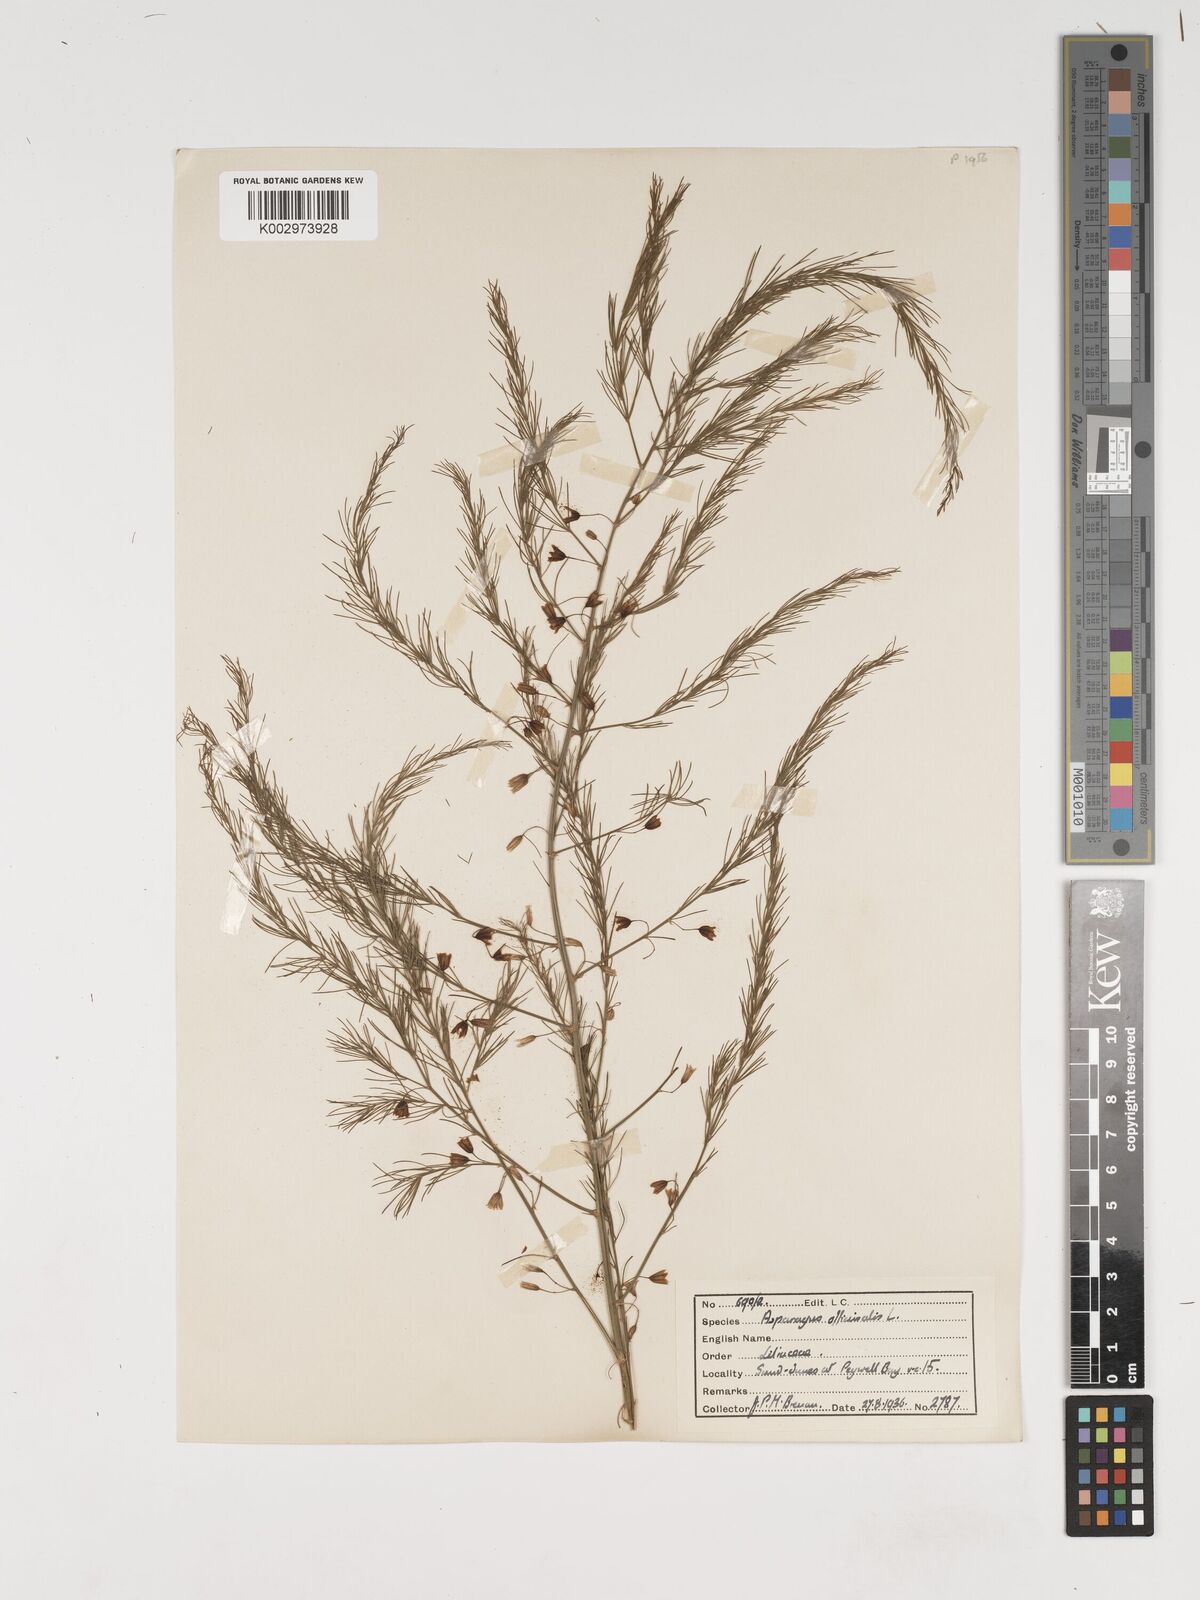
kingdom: Plantae
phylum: Tracheophyta
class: Liliopsida
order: Asparagales
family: Asparagaceae
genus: Asparagus
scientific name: Asparagus officinalis
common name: Garden asparagus
